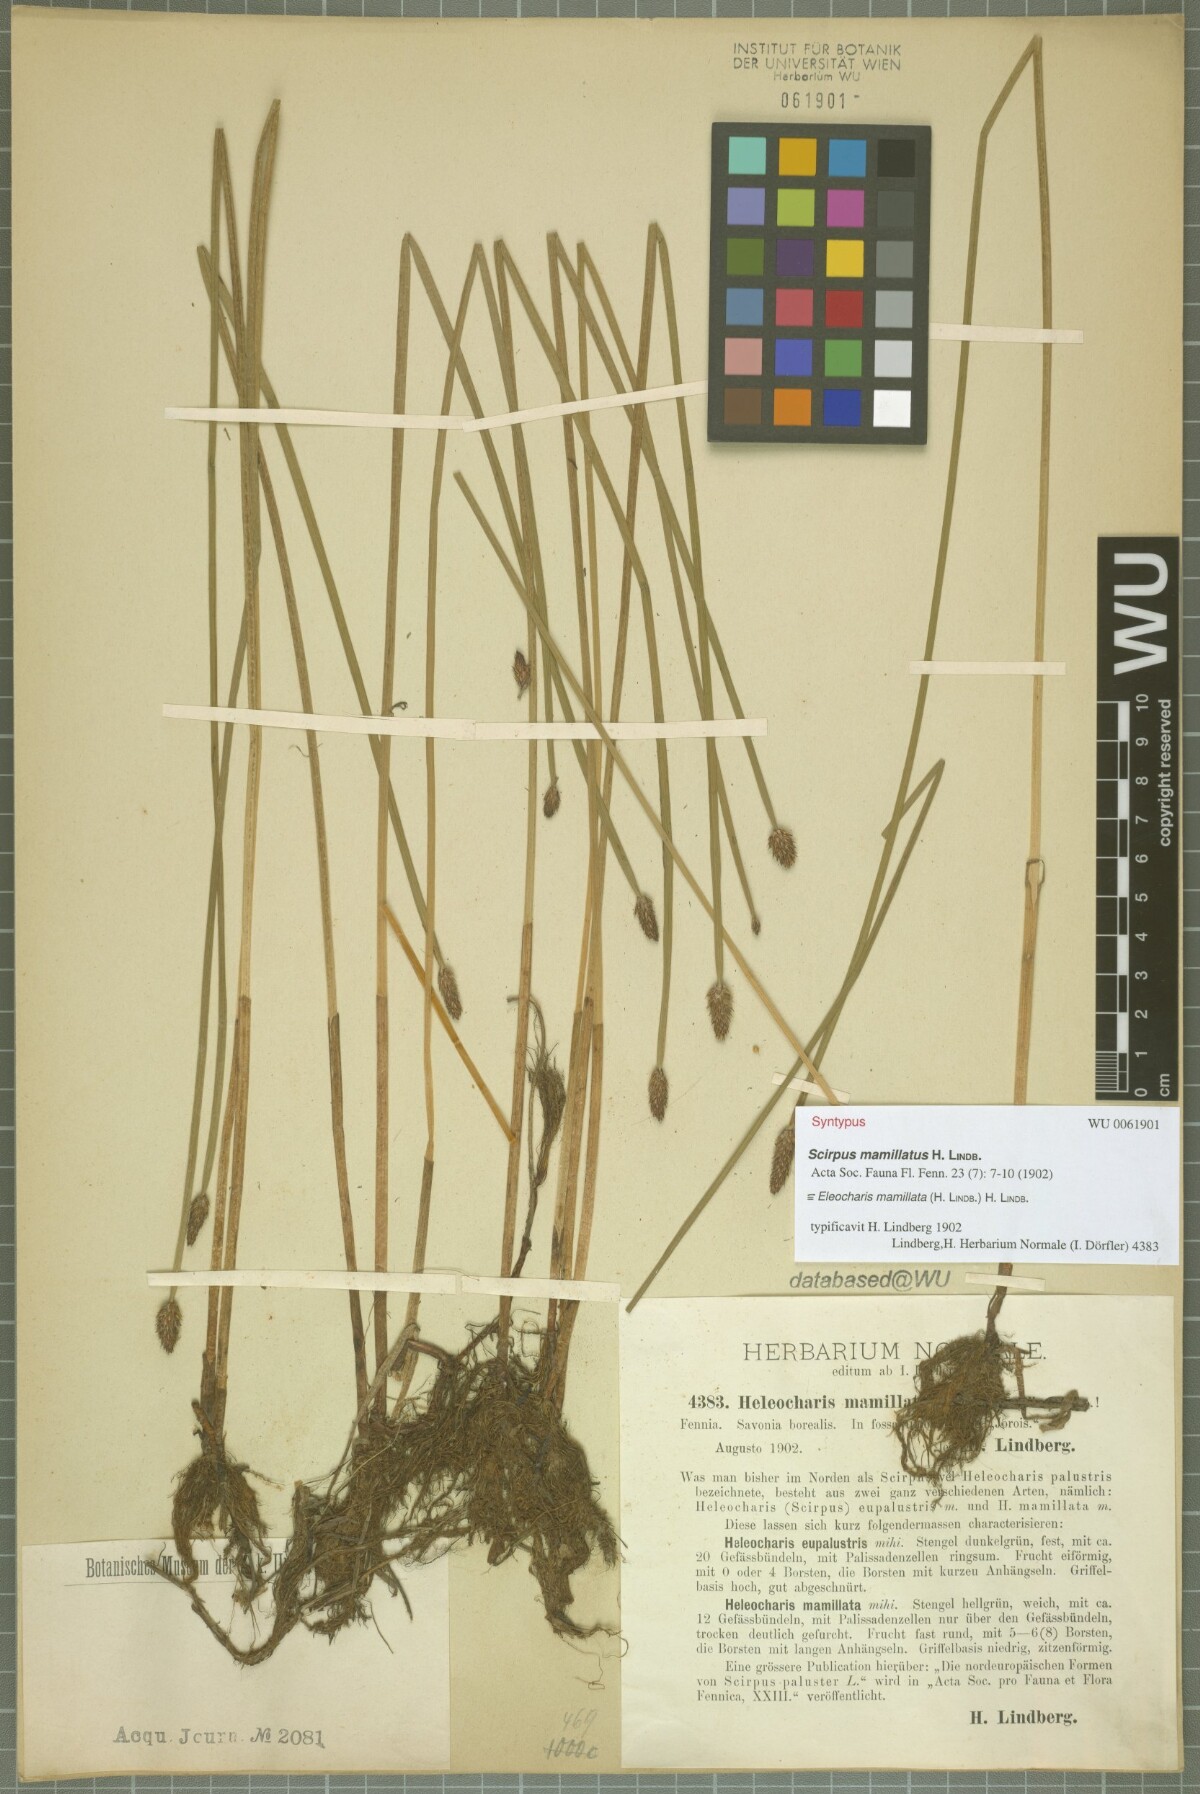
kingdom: Plantae
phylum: Tracheophyta
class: Liliopsida
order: Poales
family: Cyperaceae
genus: Eleocharis
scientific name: Eleocharis mamillata
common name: Northern spike-rush
